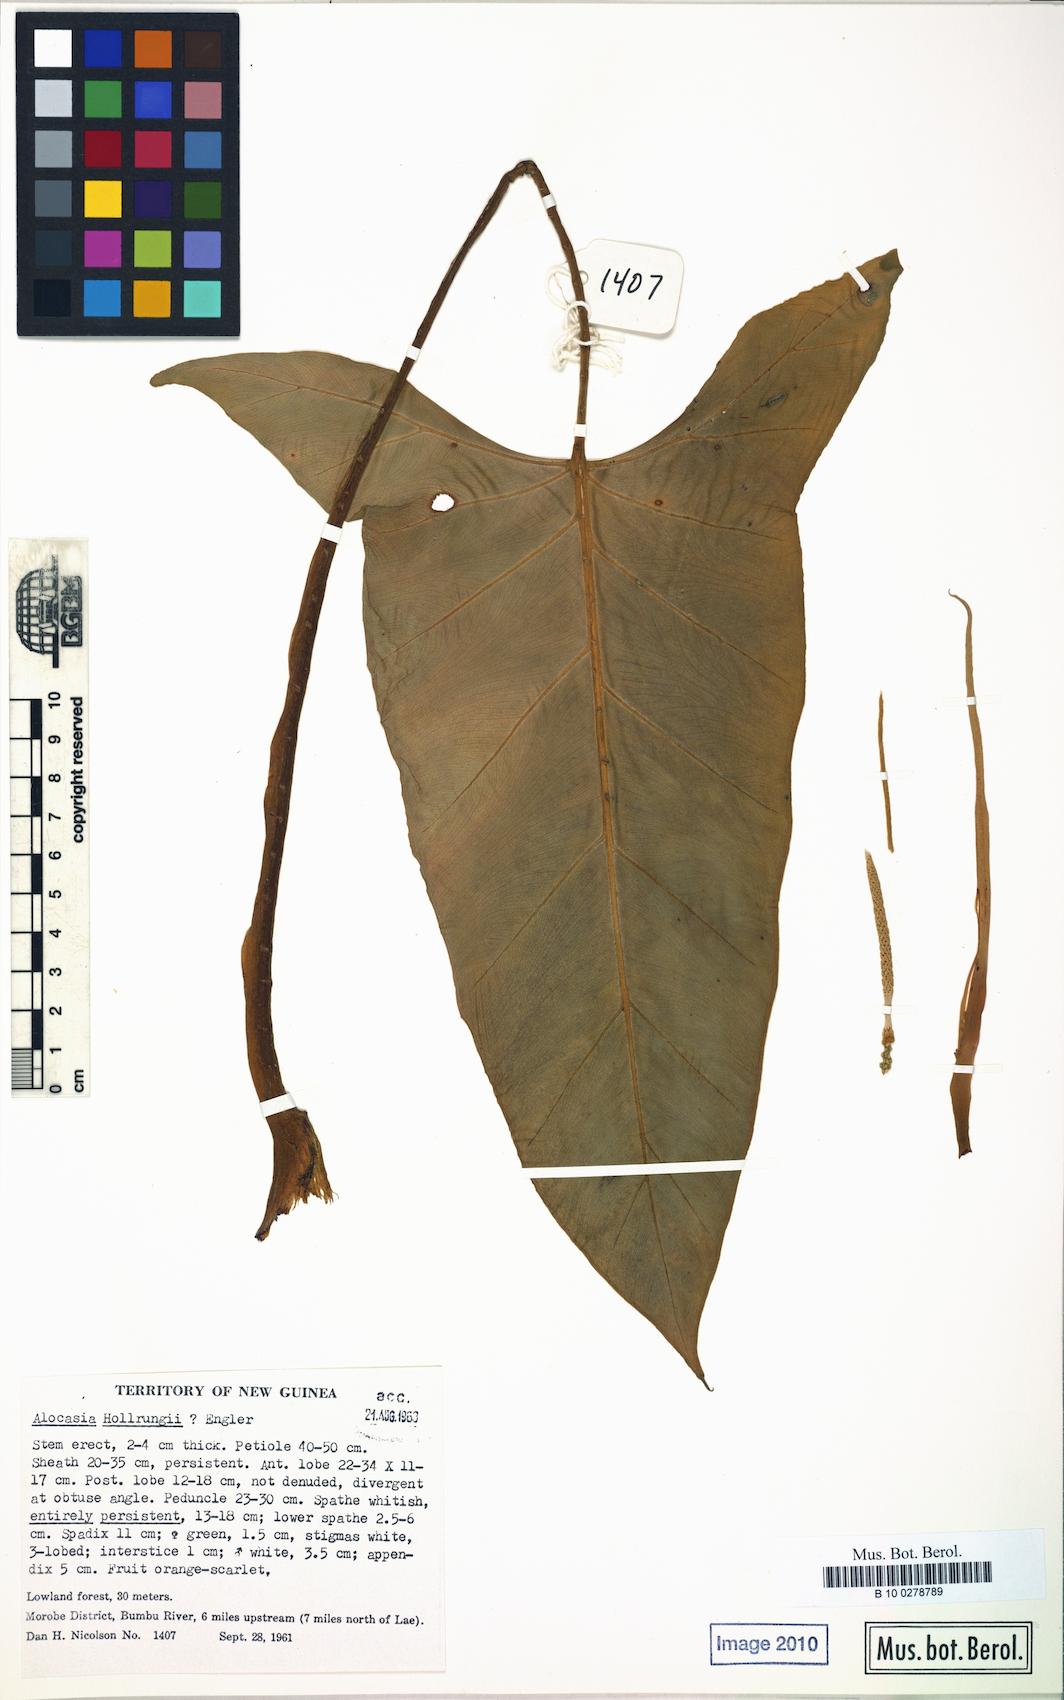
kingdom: Plantae
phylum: Tracheophyta
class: Liliopsida
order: Alismatales
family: Araceae
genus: Alocasia
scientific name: Alocasia hollrungii
